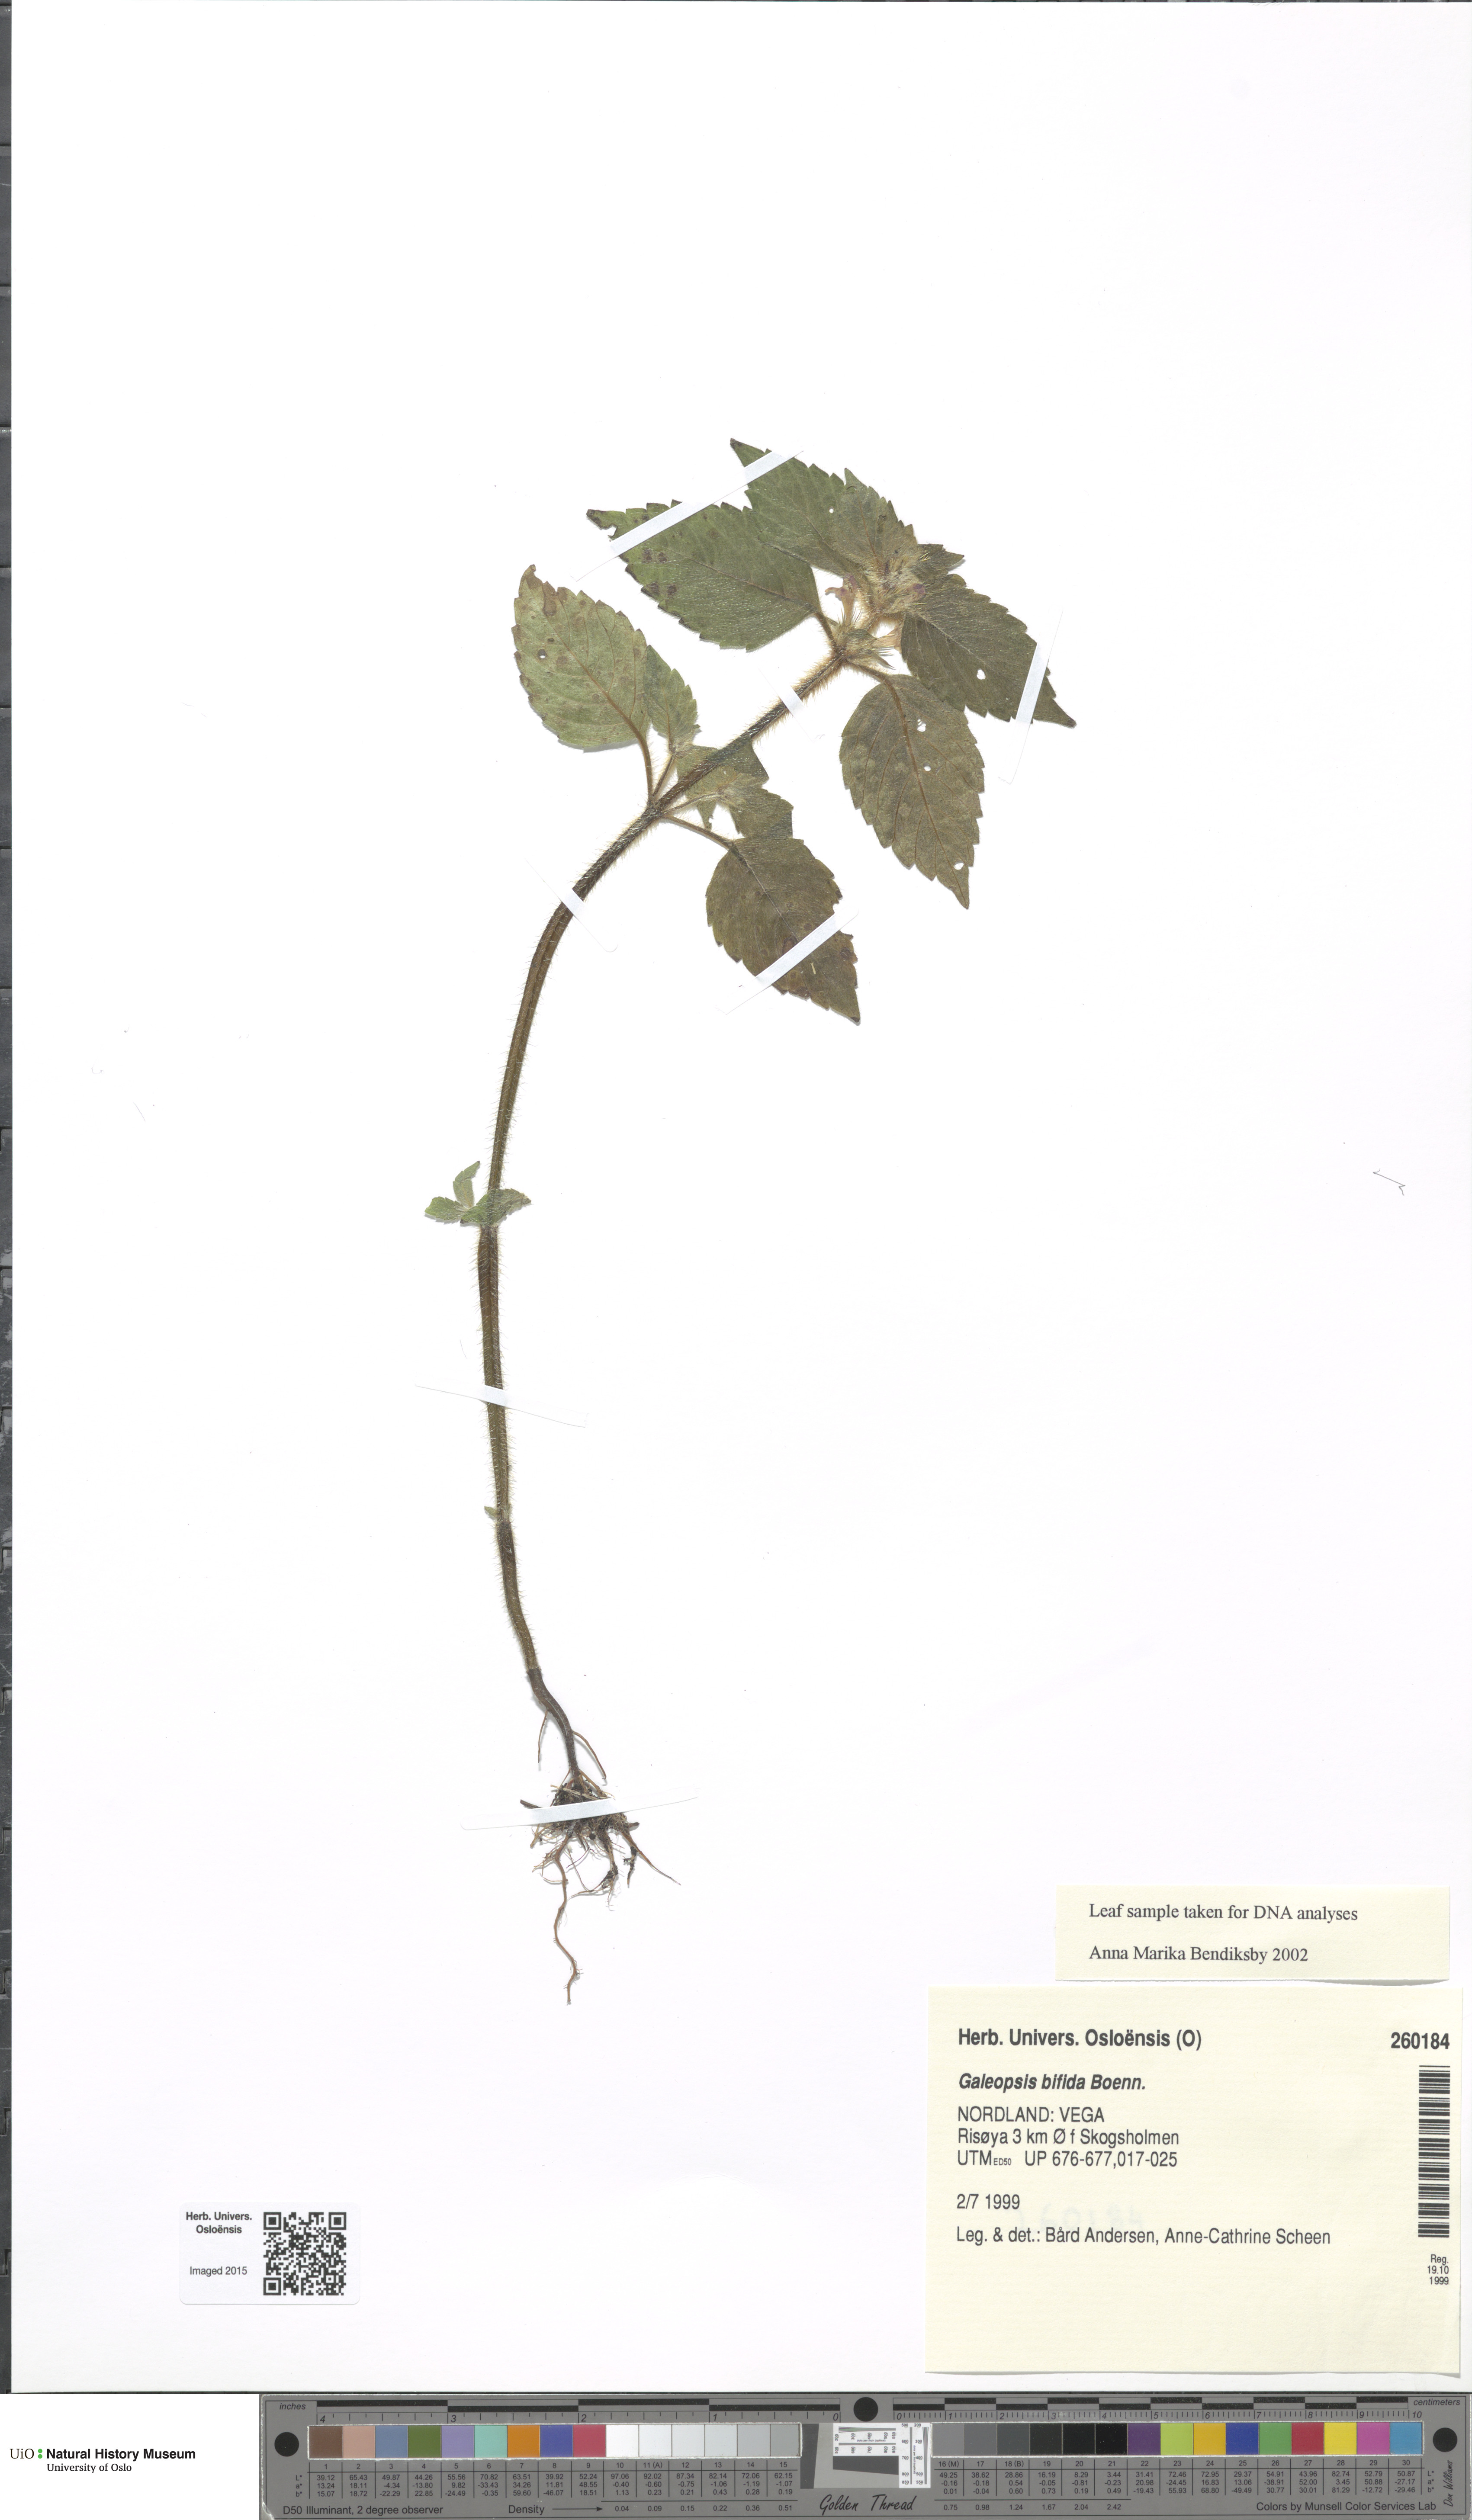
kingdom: Plantae
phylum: Tracheophyta
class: Magnoliopsida
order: Lamiales
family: Lamiaceae
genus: Galeopsis
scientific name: Galeopsis bifida
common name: Bifid hemp-nettle
